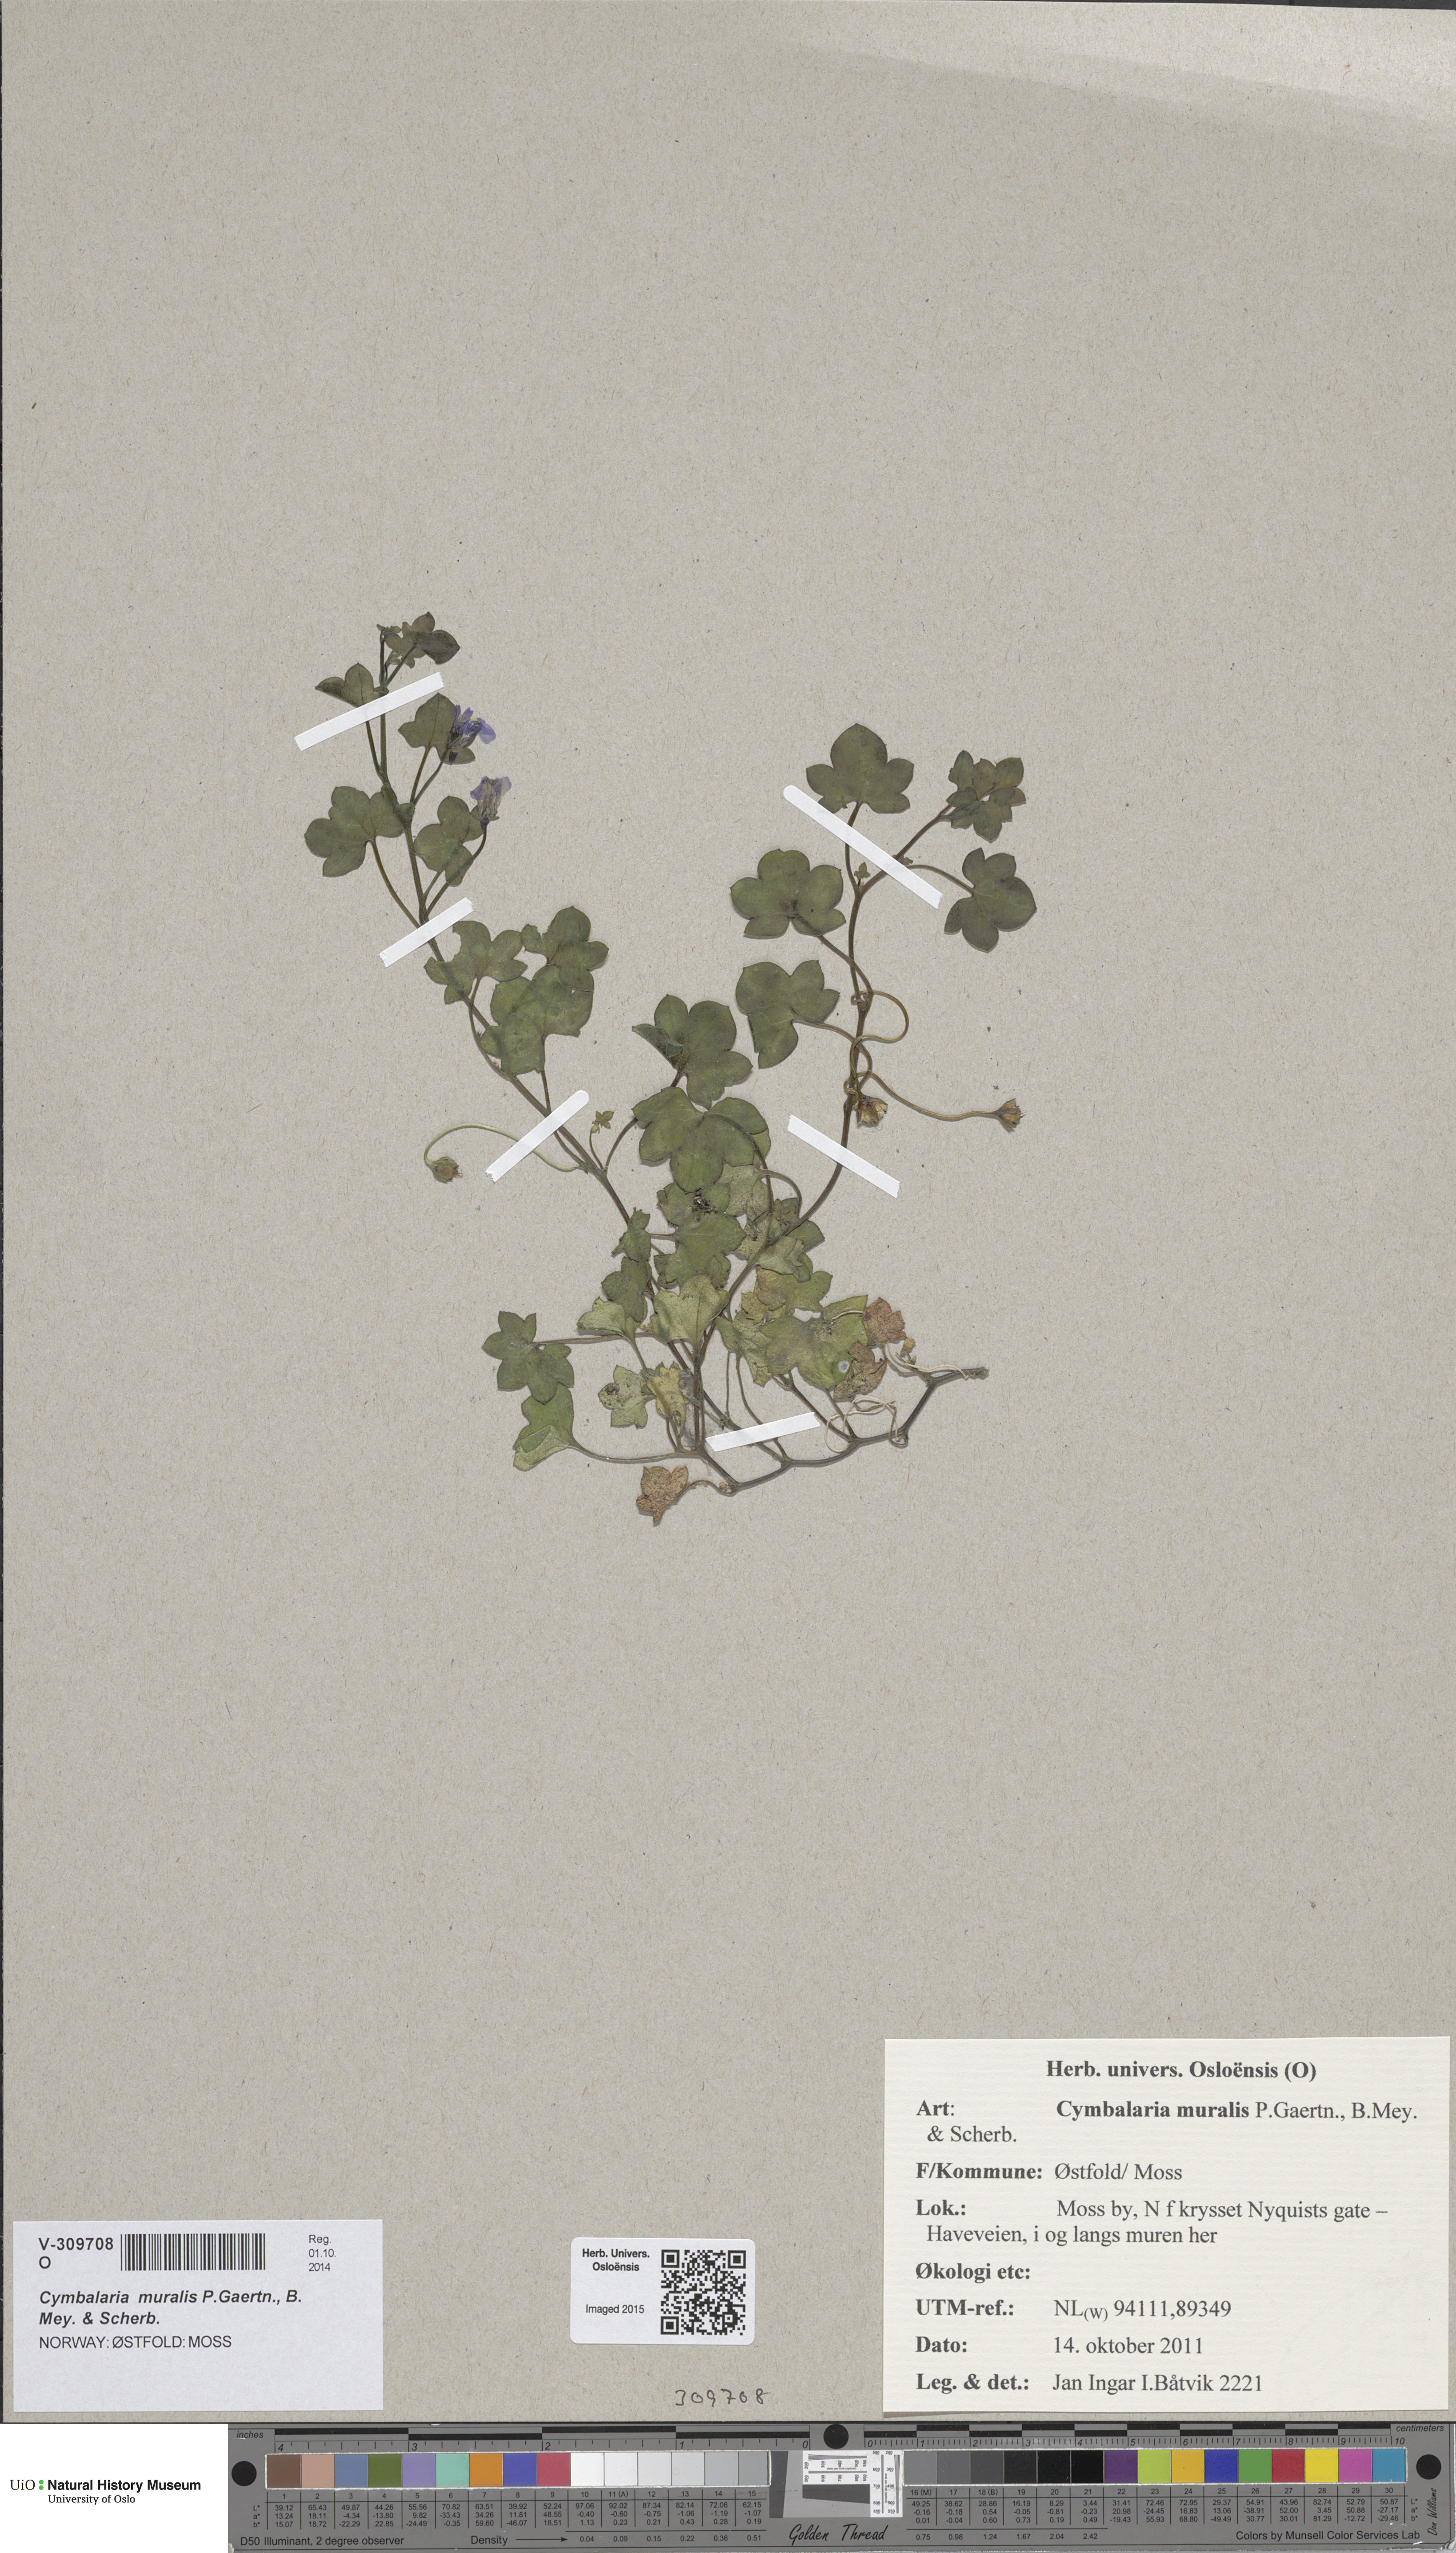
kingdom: Plantae
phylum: Tracheophyta
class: Magnoliopsida
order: Lamiales
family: Plantaginaceae
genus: Cymbalaria
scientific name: Cymbalaria muralis
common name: Ivy-leaved toadflax
